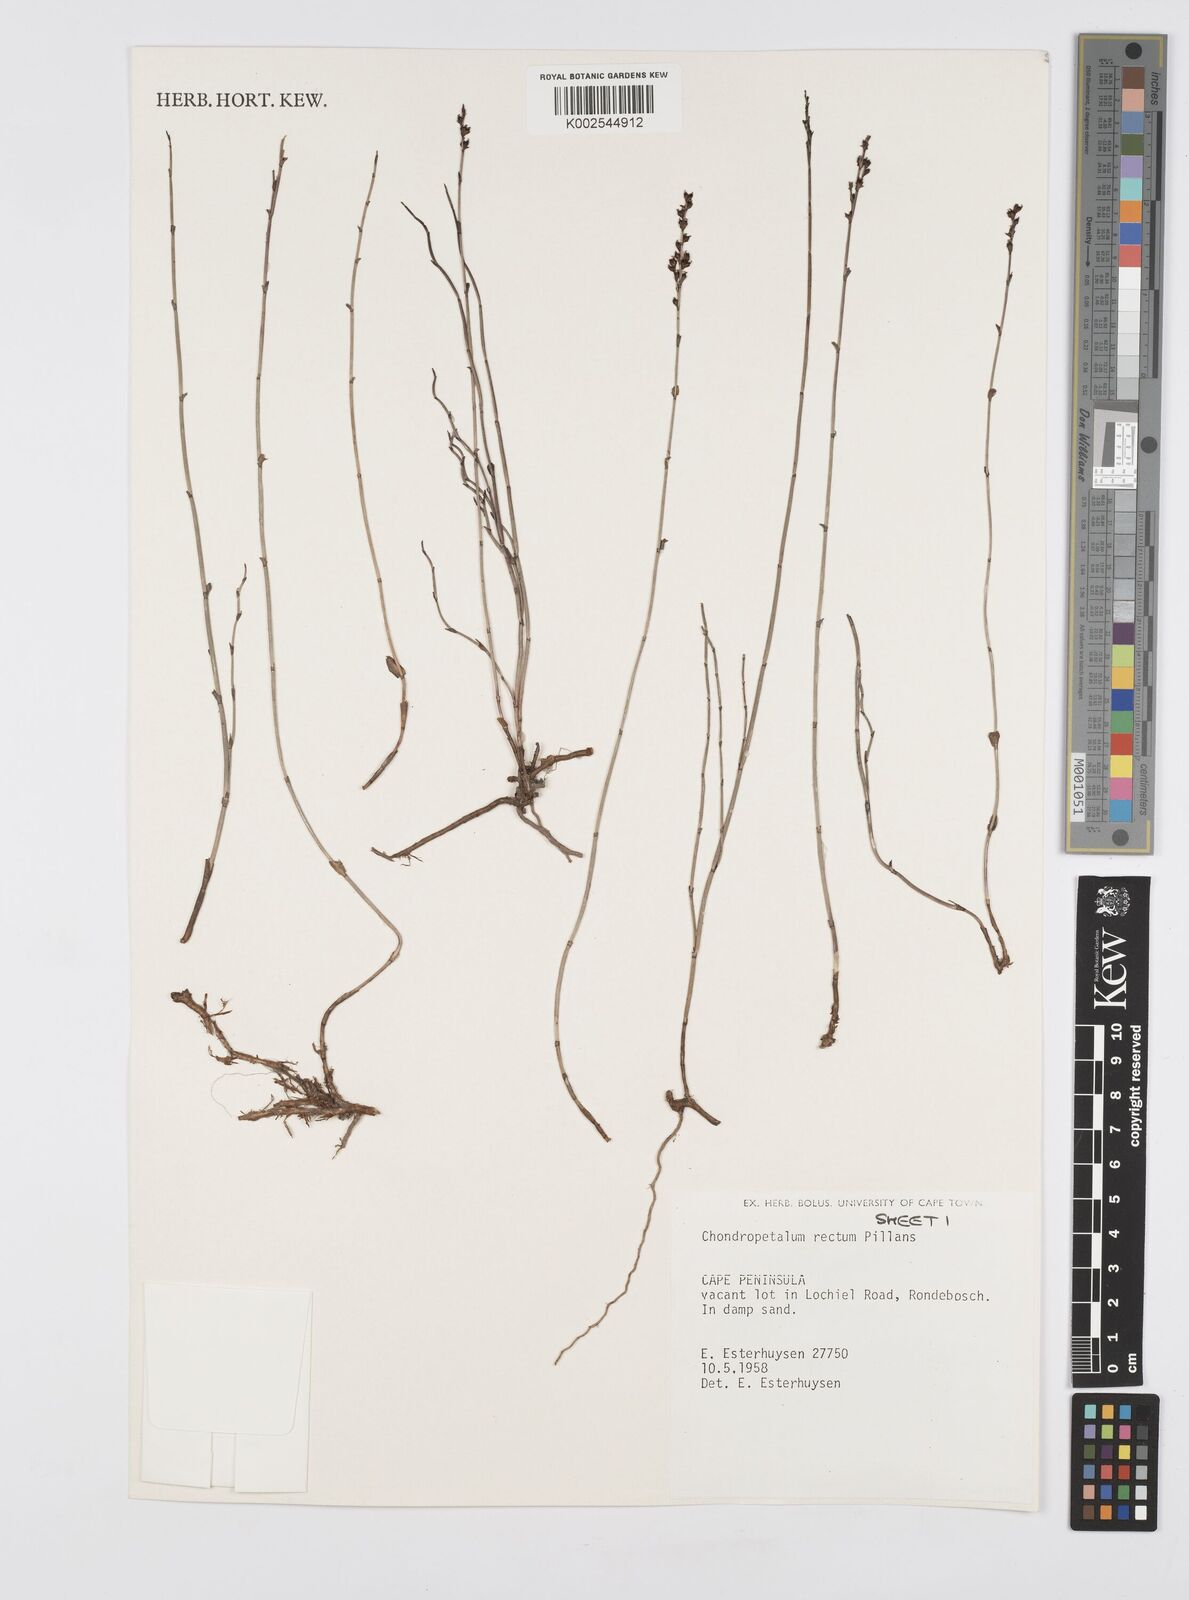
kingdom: Plantae
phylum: Tracheophyta
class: Liliopsida
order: Poales
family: Restionaceae
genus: Elegia
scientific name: Elegia recta
